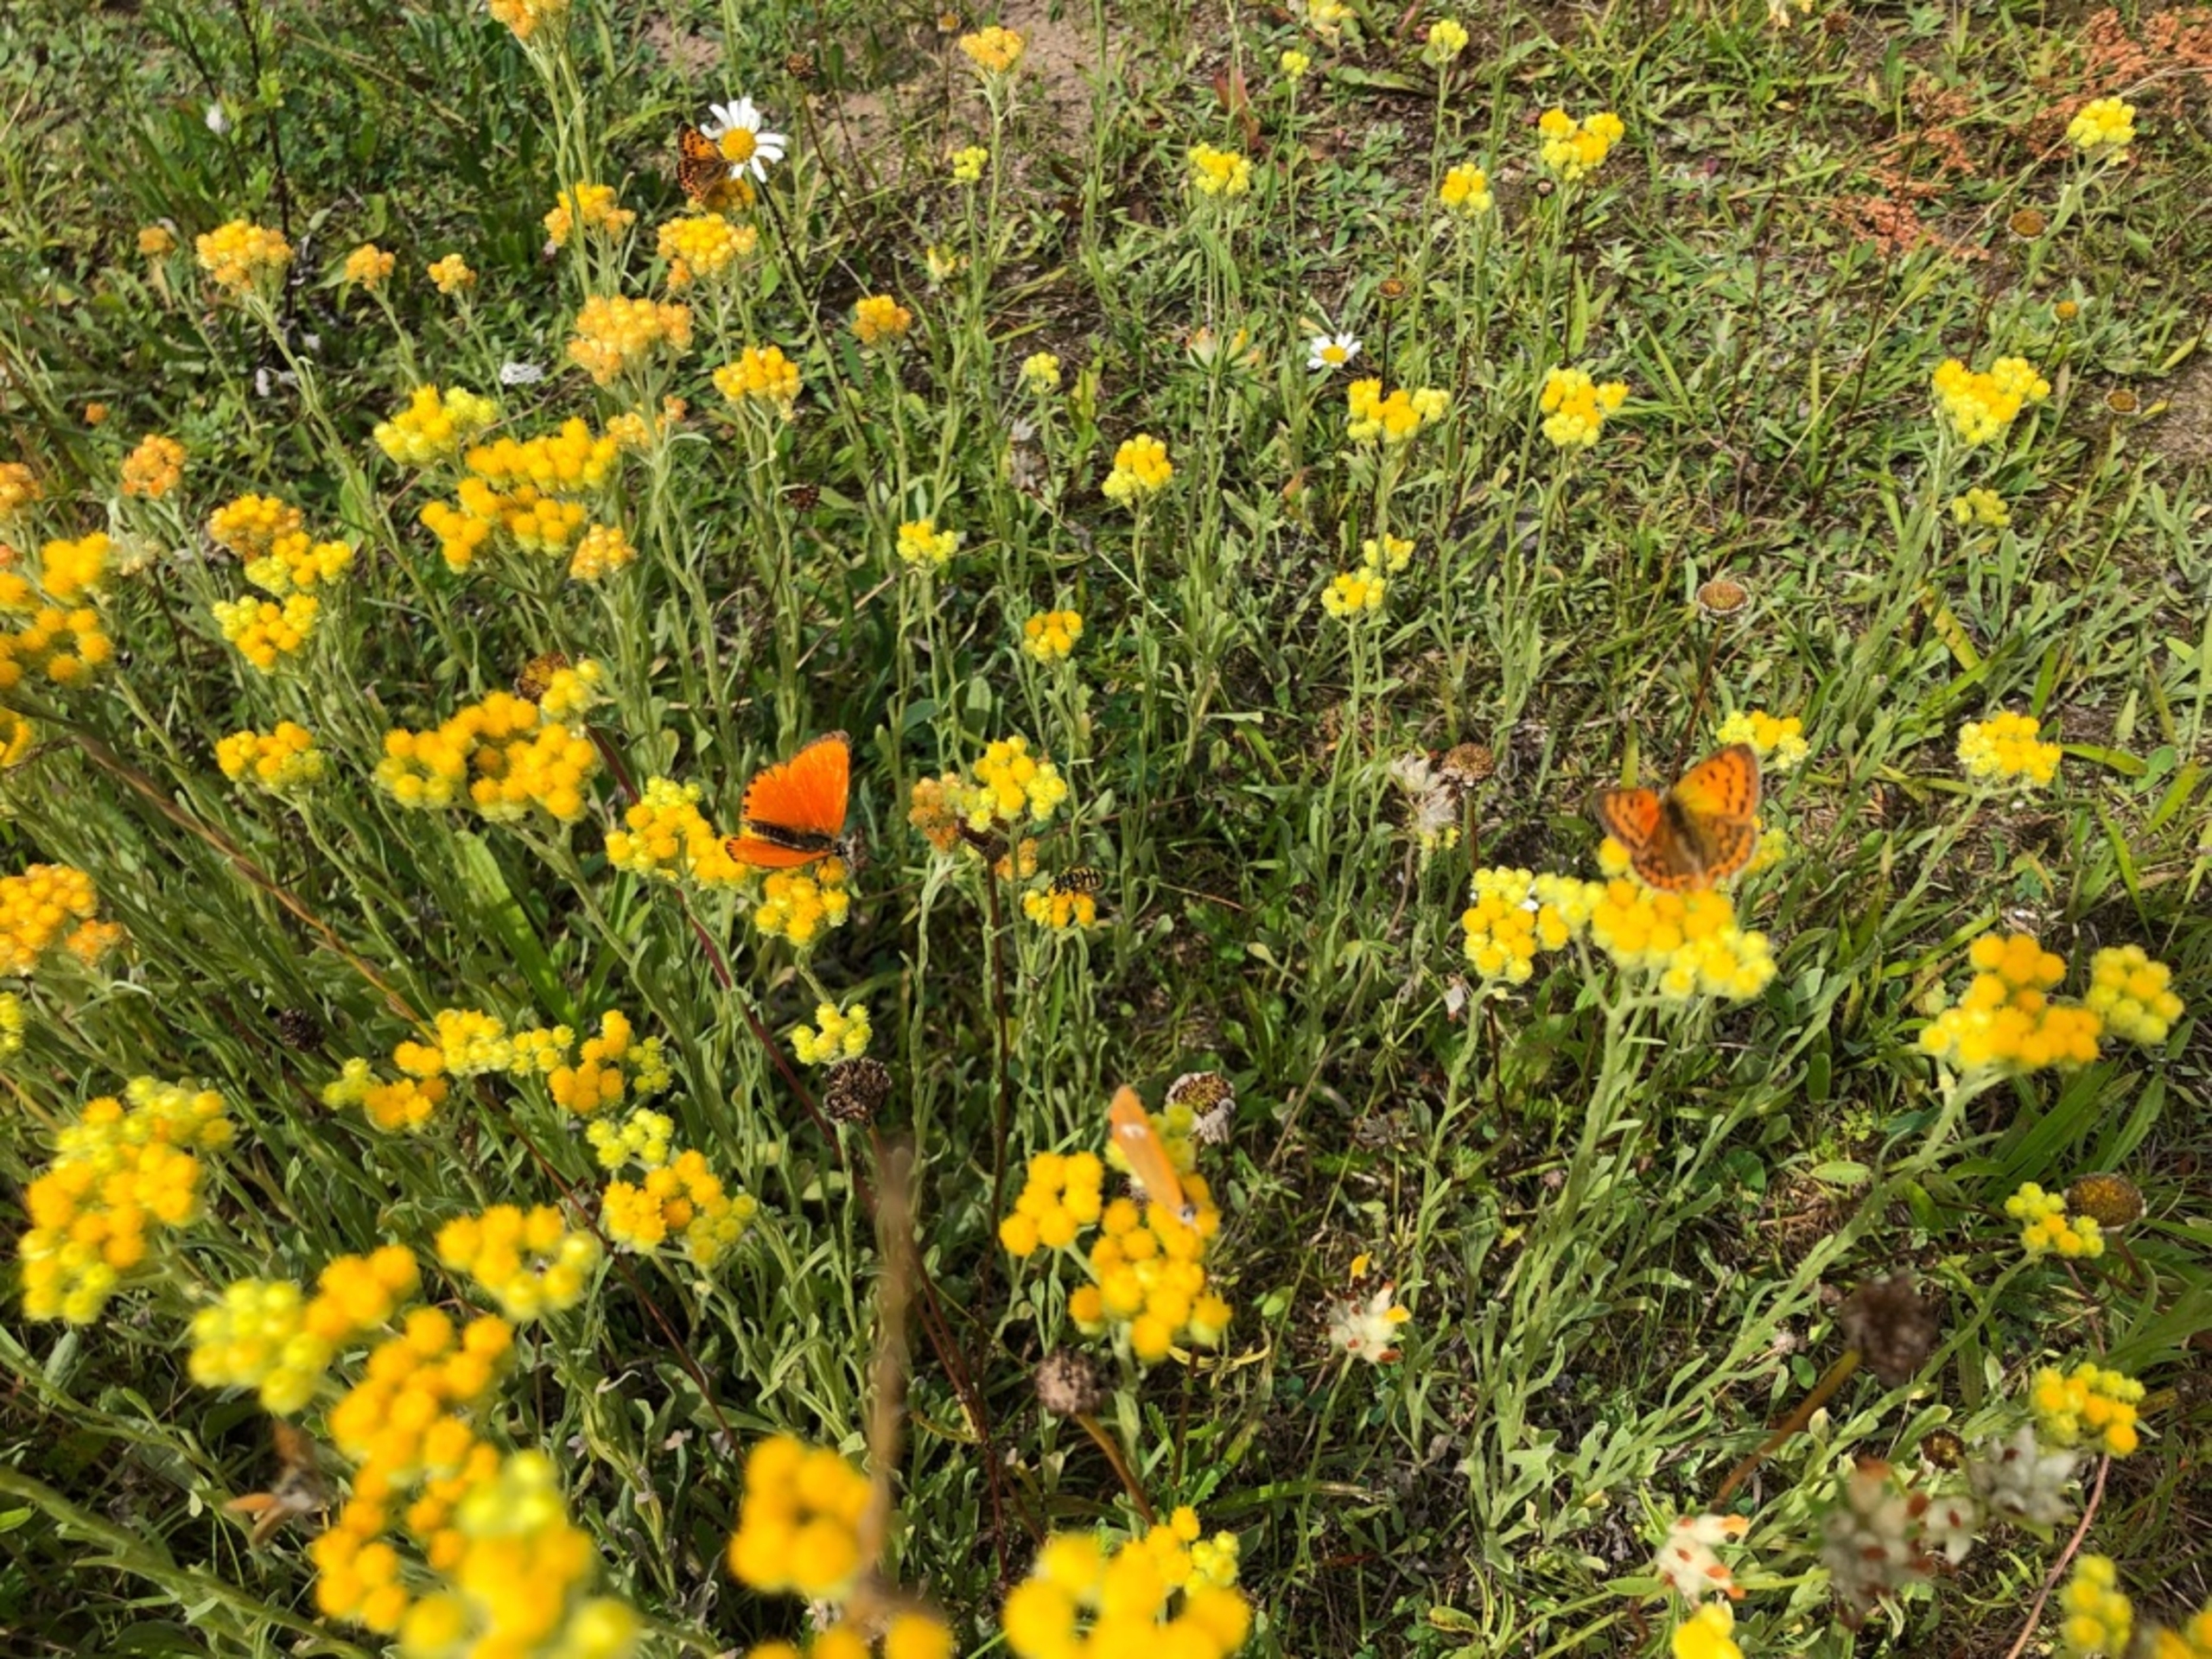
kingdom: Plantae
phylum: Tracheophyta
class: Magnoliopsida
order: Asterales
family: Asteraceae
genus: Helichrysum
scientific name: Helichrysum arenarium
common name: Gul evighedsblomst
